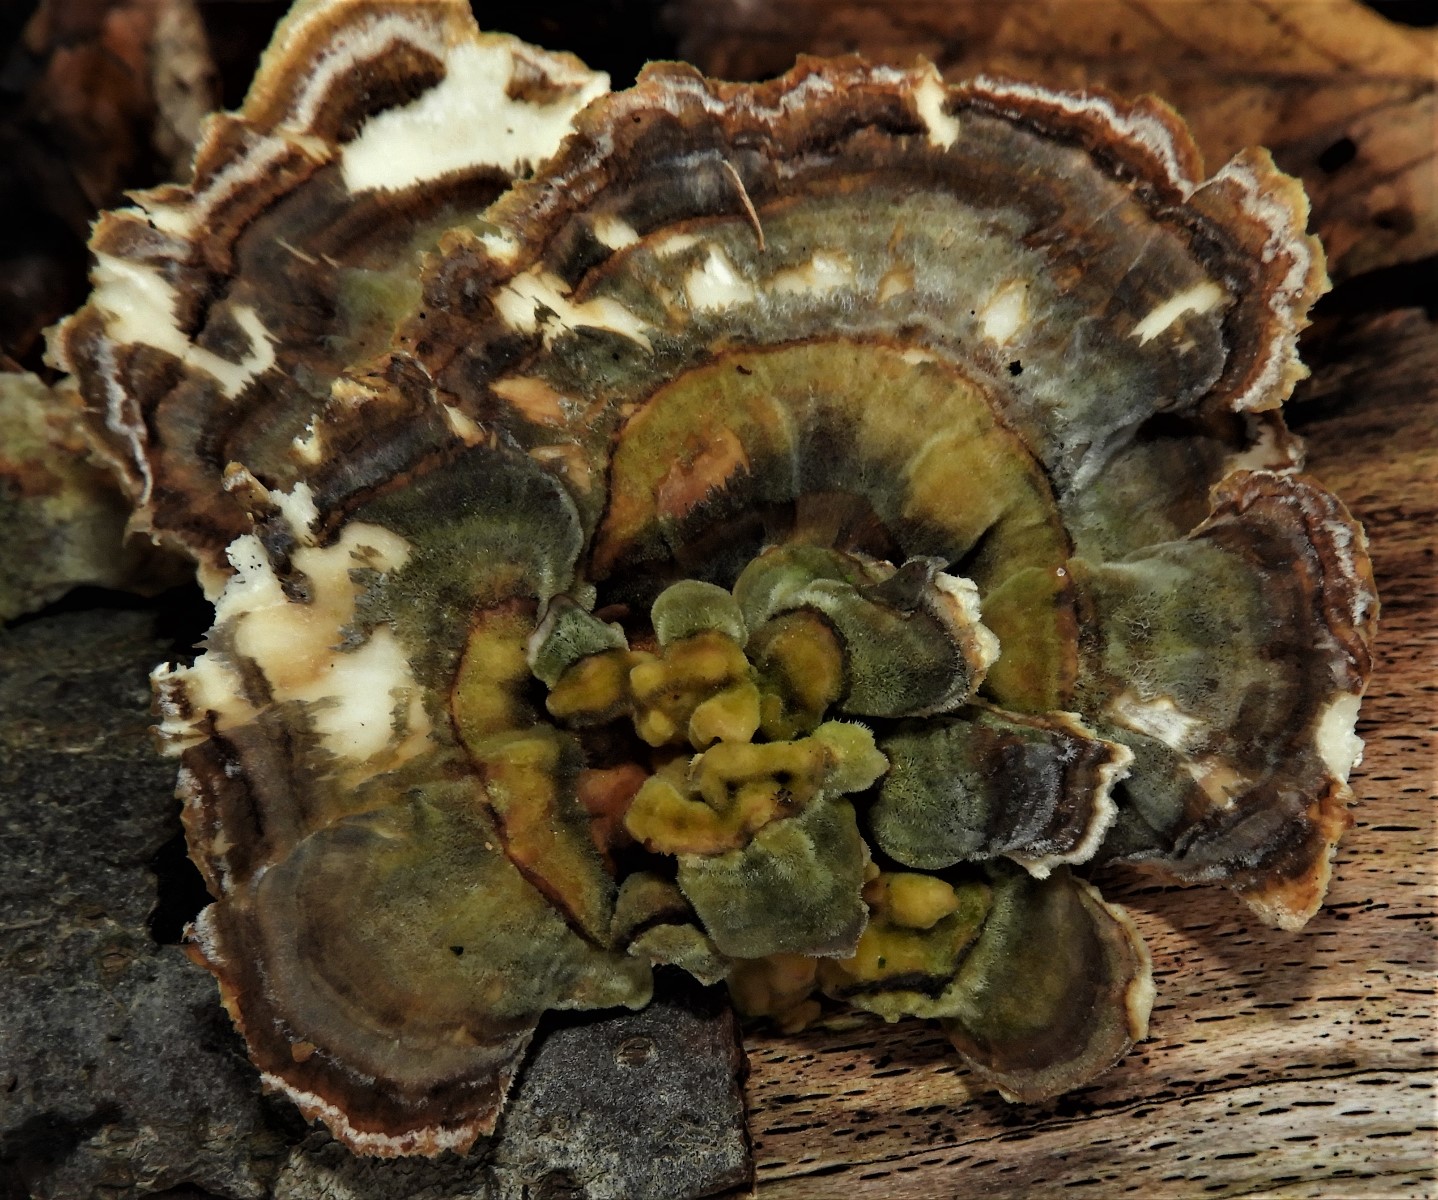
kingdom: Fungi
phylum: Basidiomycota
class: Agaricomycetes
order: Polyporales
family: Polyporaceae
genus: Trametes
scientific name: Trametes versicolor
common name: broget læderporesvamp
